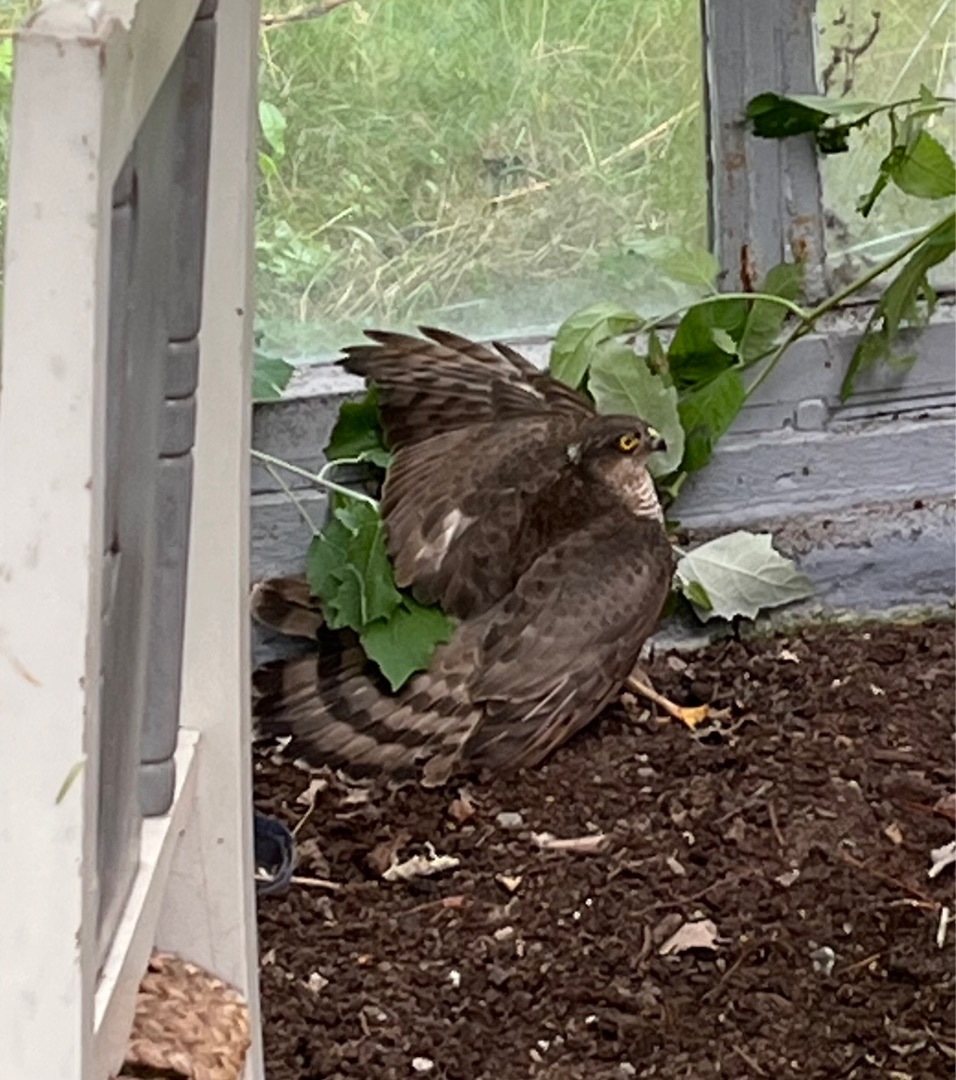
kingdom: Animalia
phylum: Chordata
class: Aves
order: Accipitriformes
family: Accipitridae
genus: Accipiter
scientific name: Accipiter nisus
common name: Spurvehøg
